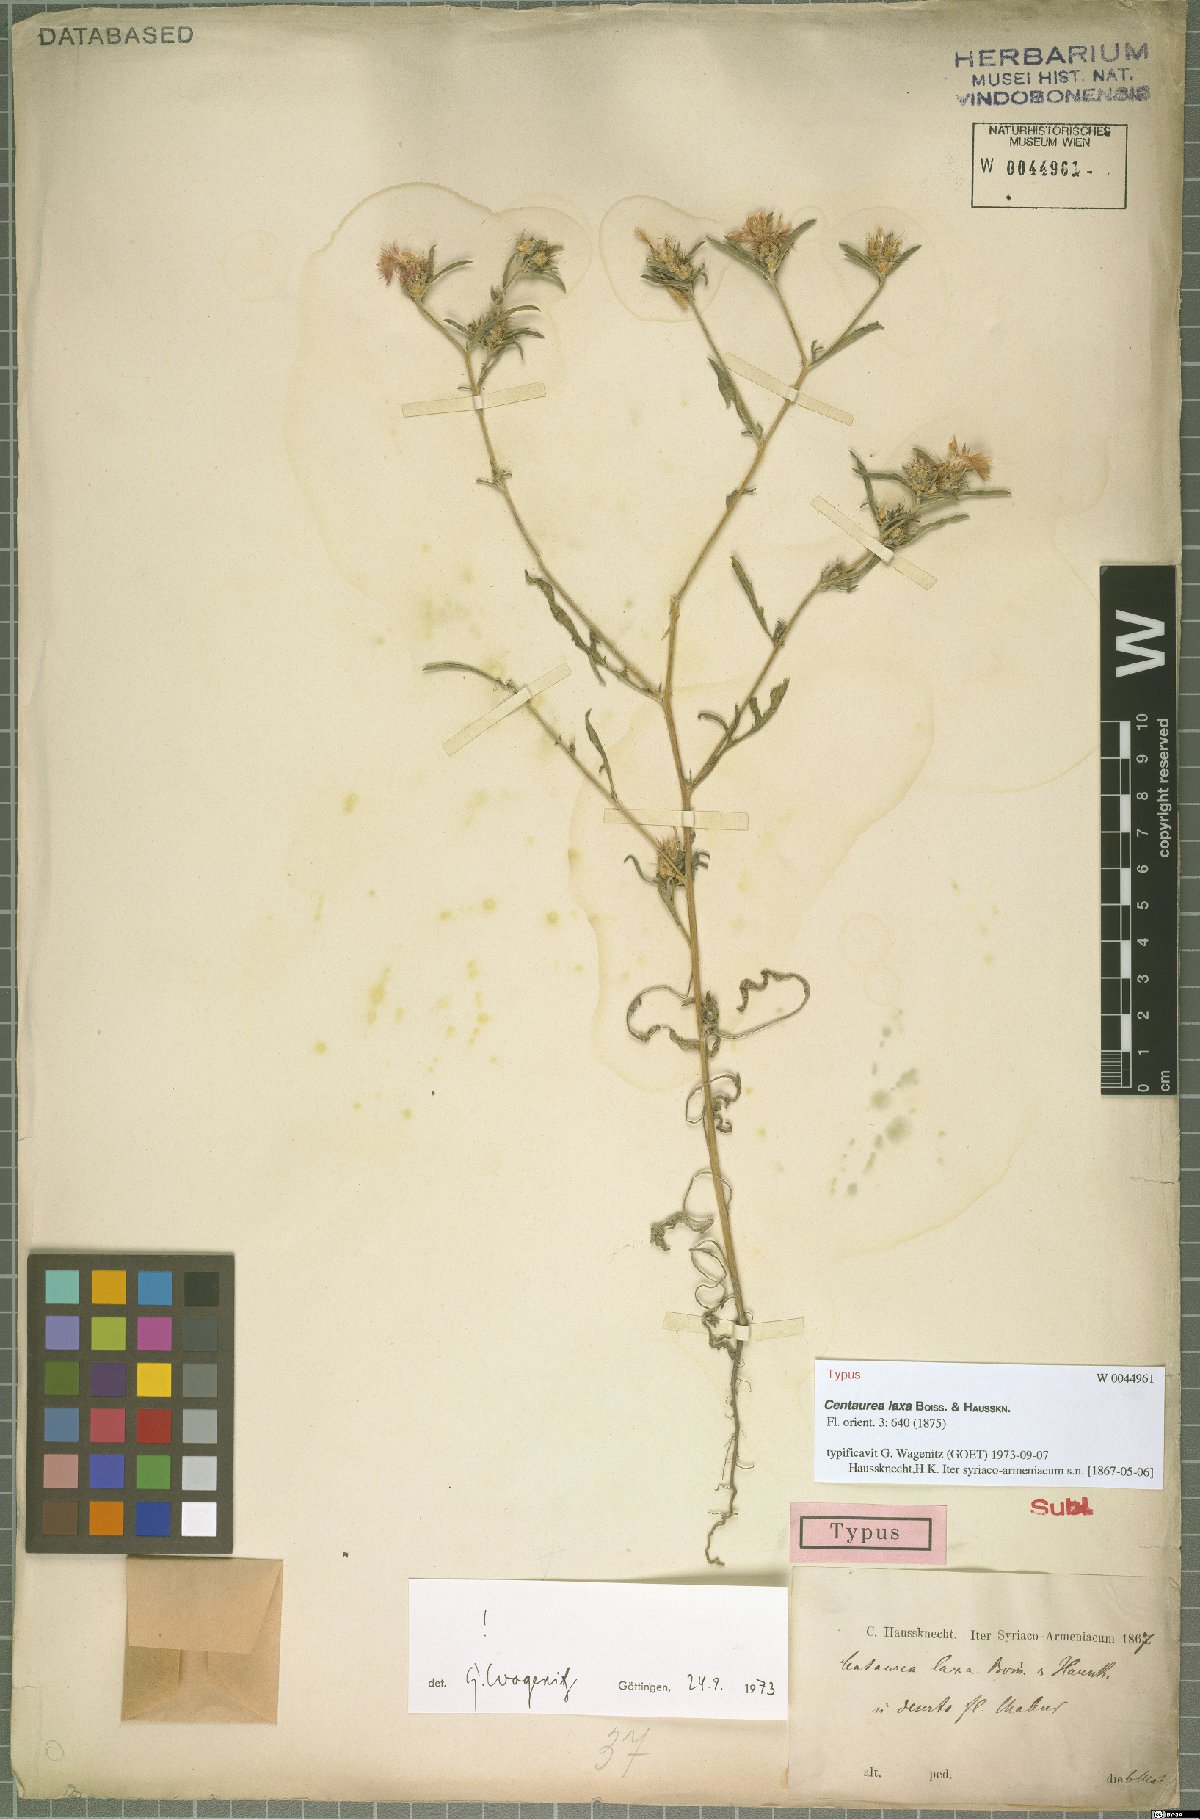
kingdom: Plantae
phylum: Tracheophyta
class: Magnoliopsida
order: Asterales
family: Asteraceae
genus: Centaurea
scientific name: Centaurea laxa
